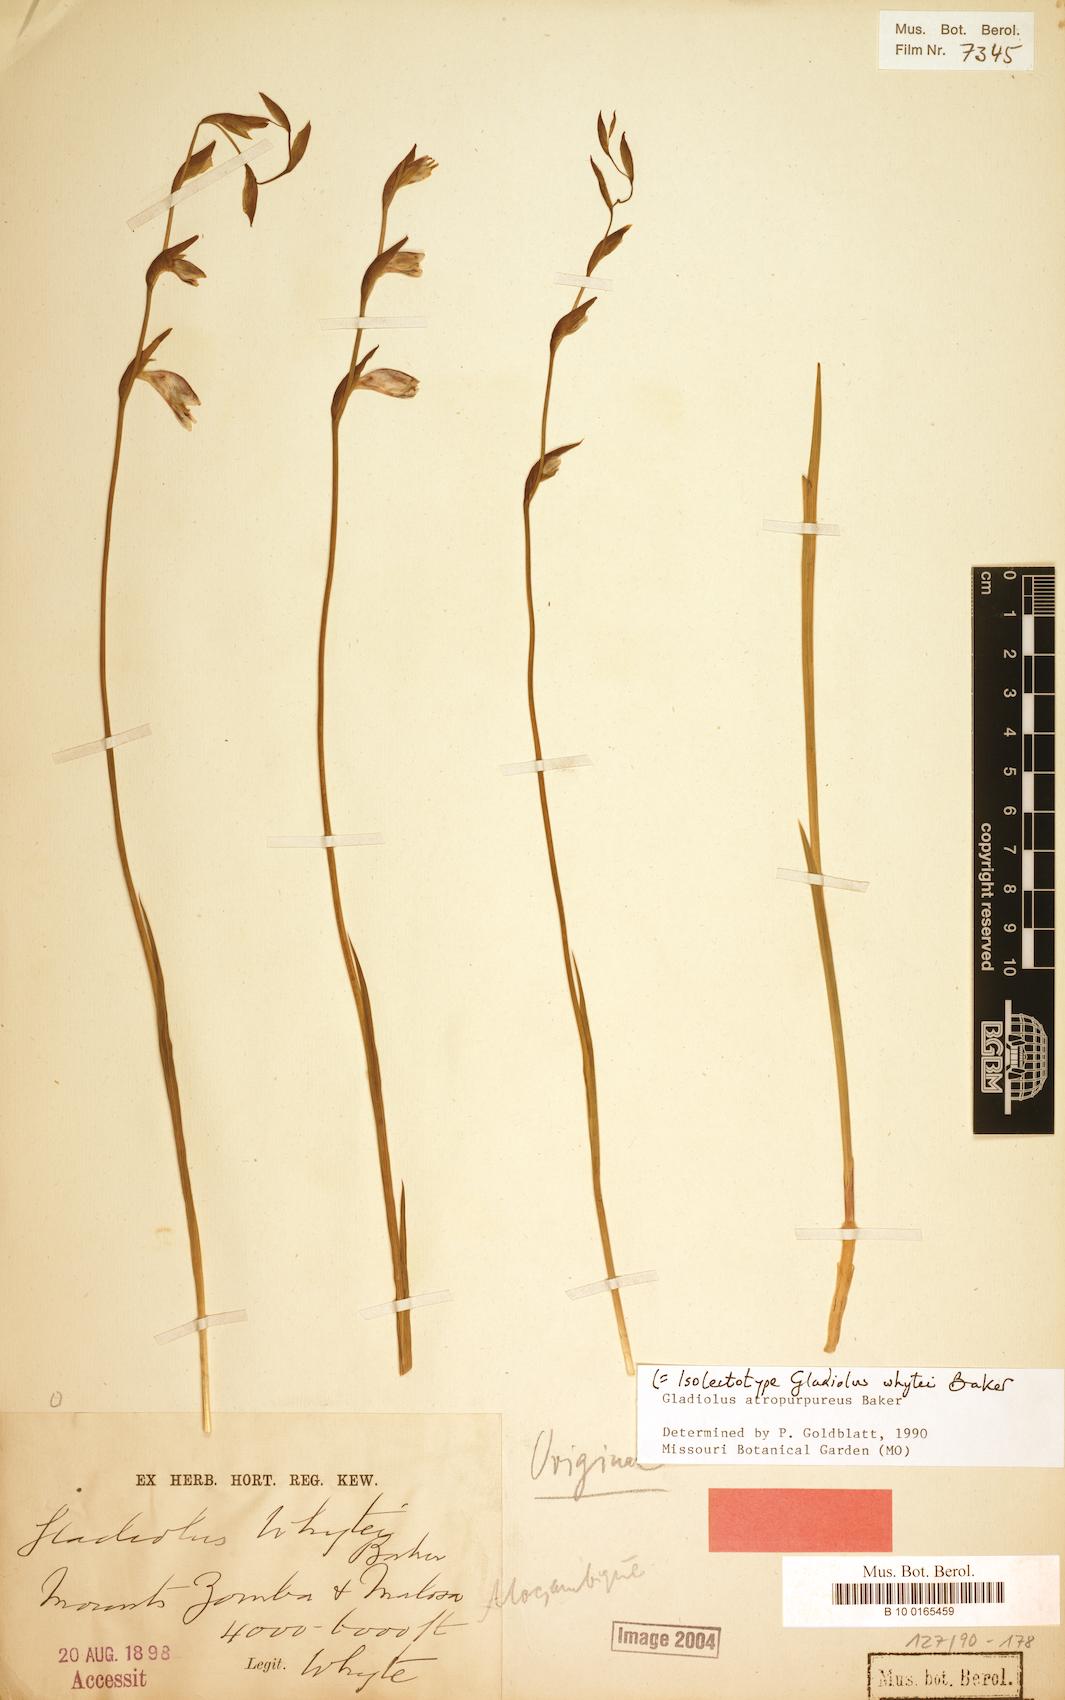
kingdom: Plantae
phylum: Tracheophyta
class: Liliopsida
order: Asparagales
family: Iridaceae
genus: Gladiolus
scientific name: Gladiolus atropurpureus
